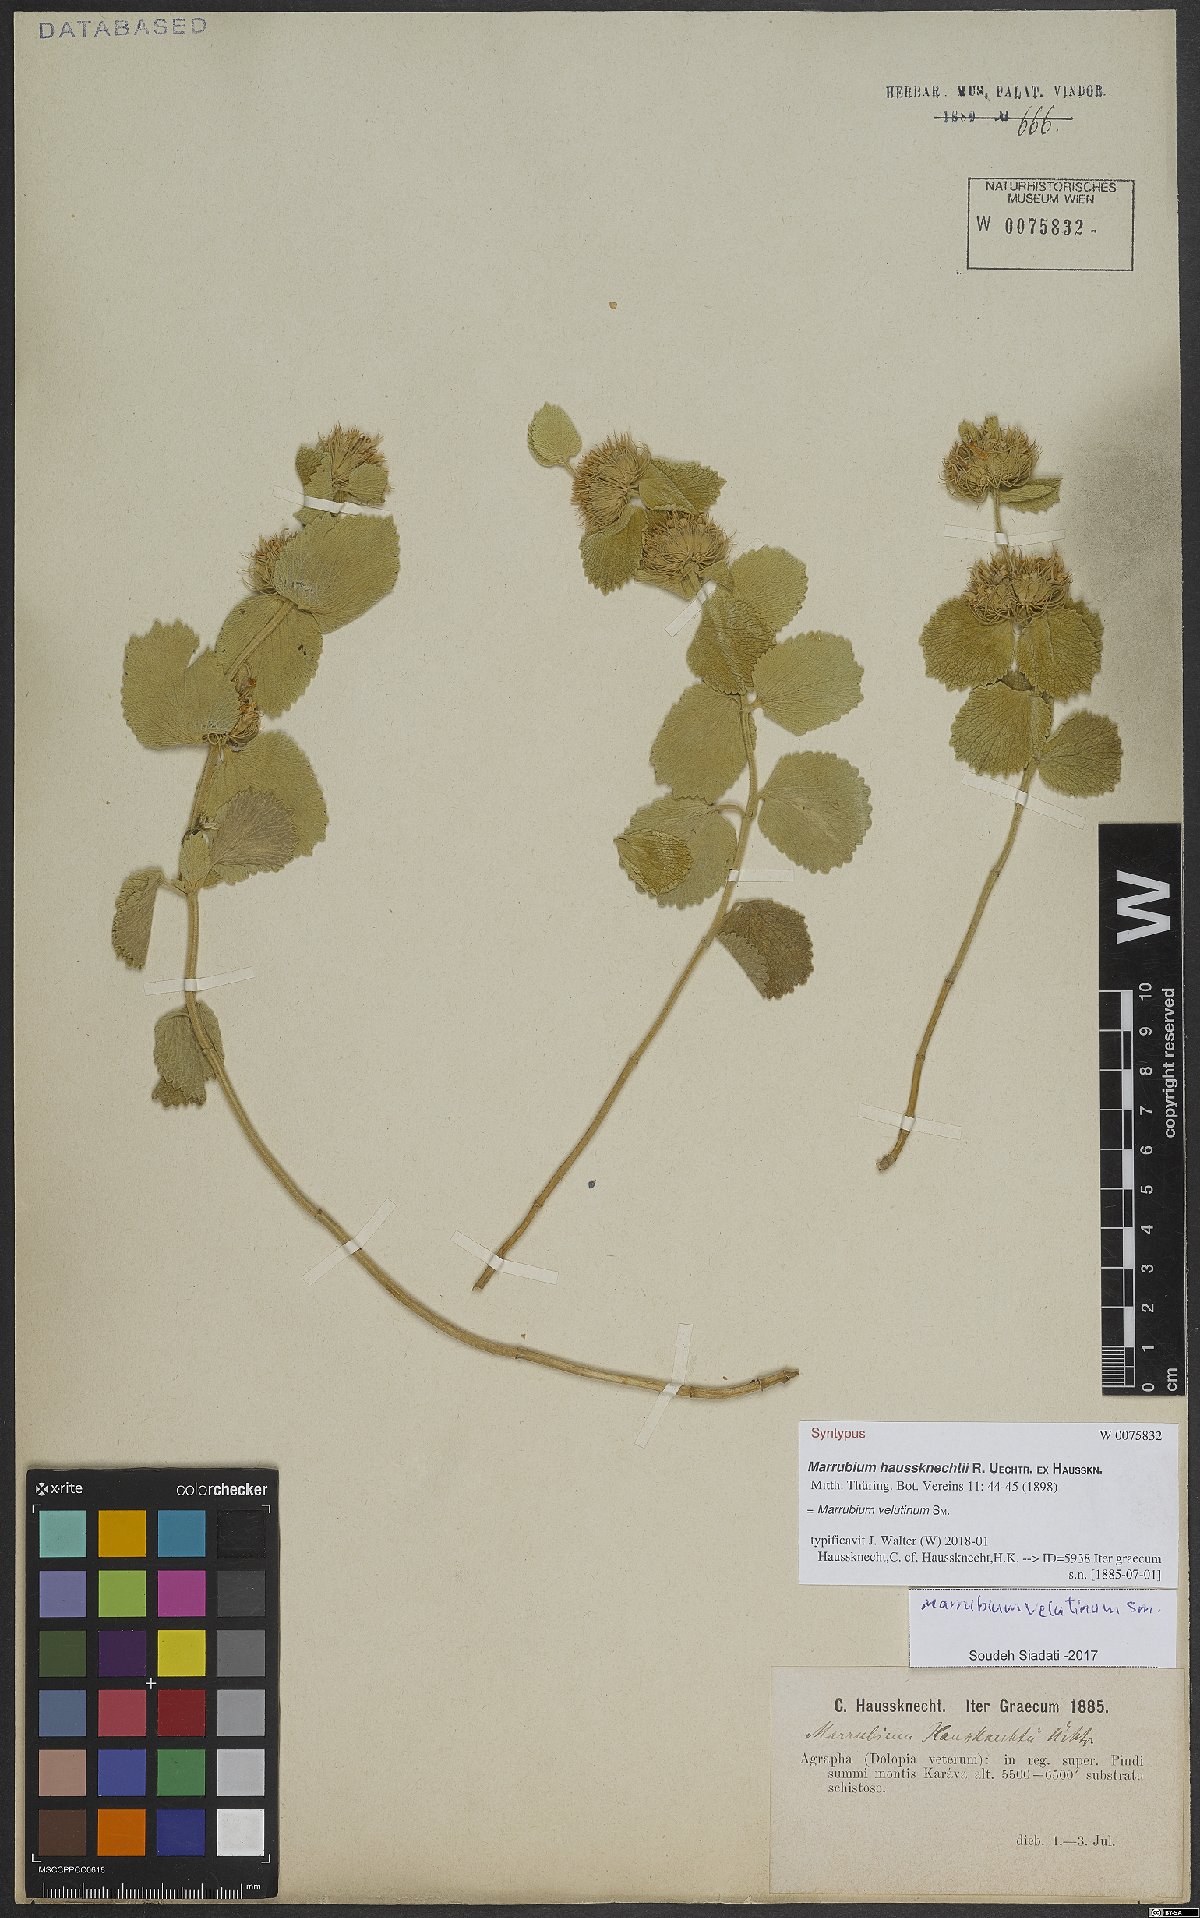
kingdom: Plantae
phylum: Tracheophyta
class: Magnoliopsida
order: Lamiales
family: Lamiaceae
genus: Marrubium
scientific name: Marrubium velutinum
